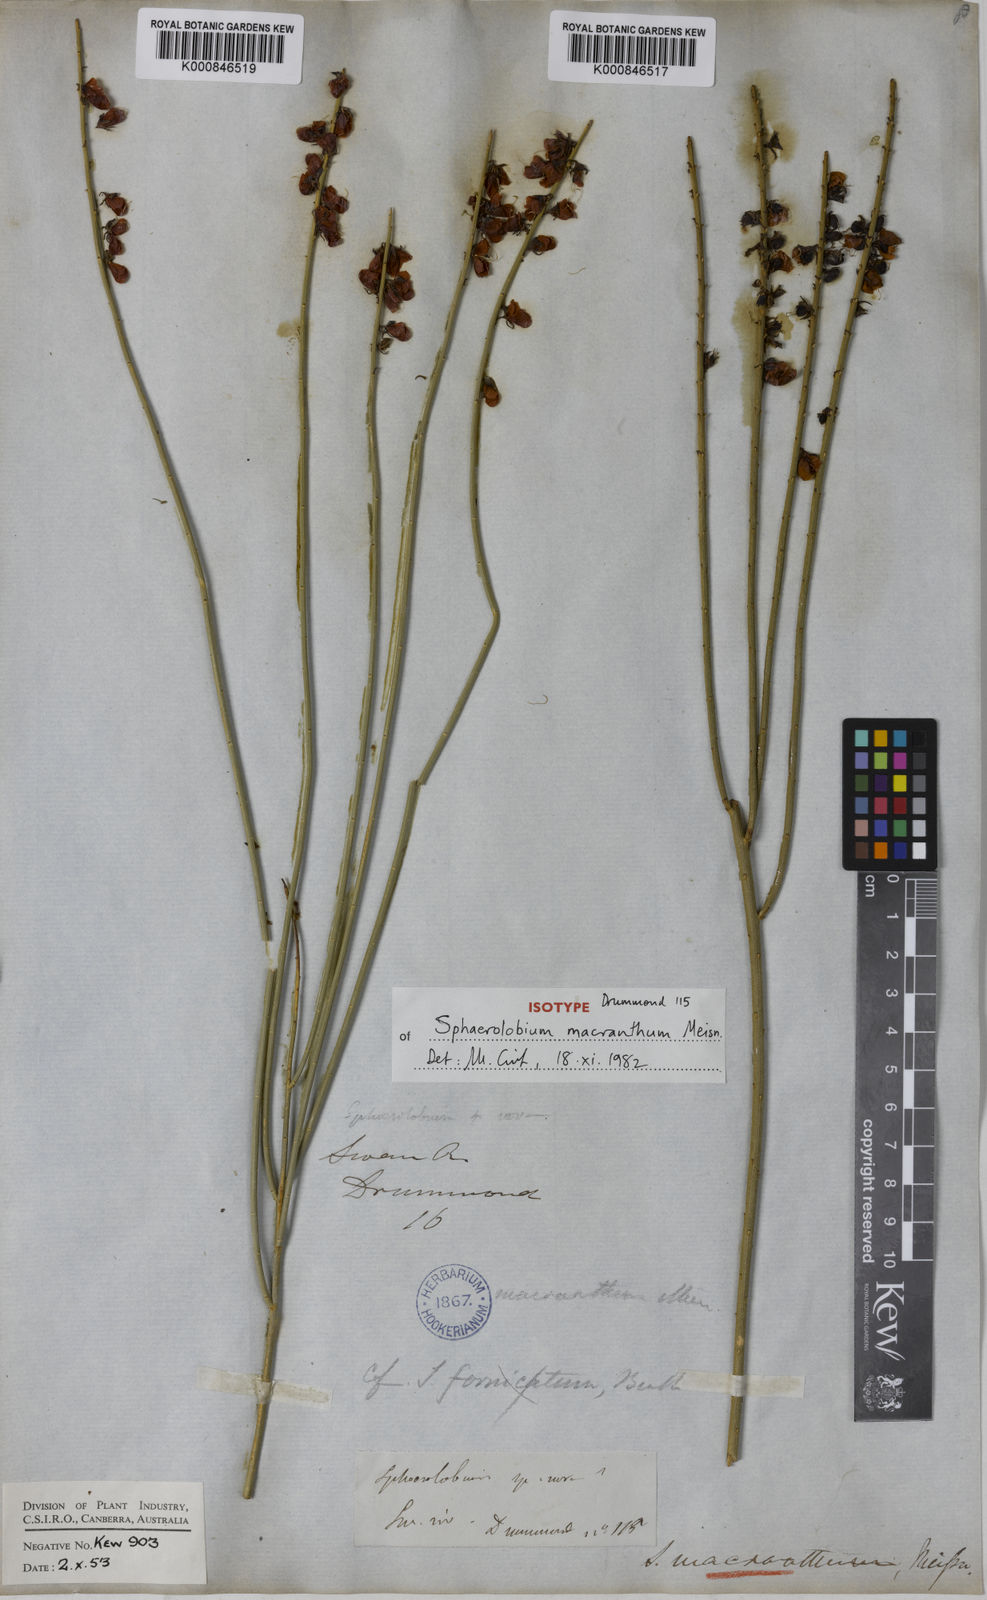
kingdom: Plantae
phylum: Tracheophyta
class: Magnoliopsida
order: Fabales
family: Fabaceae
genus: Sphaerolobium
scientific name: Sphaerolobium macranthum
